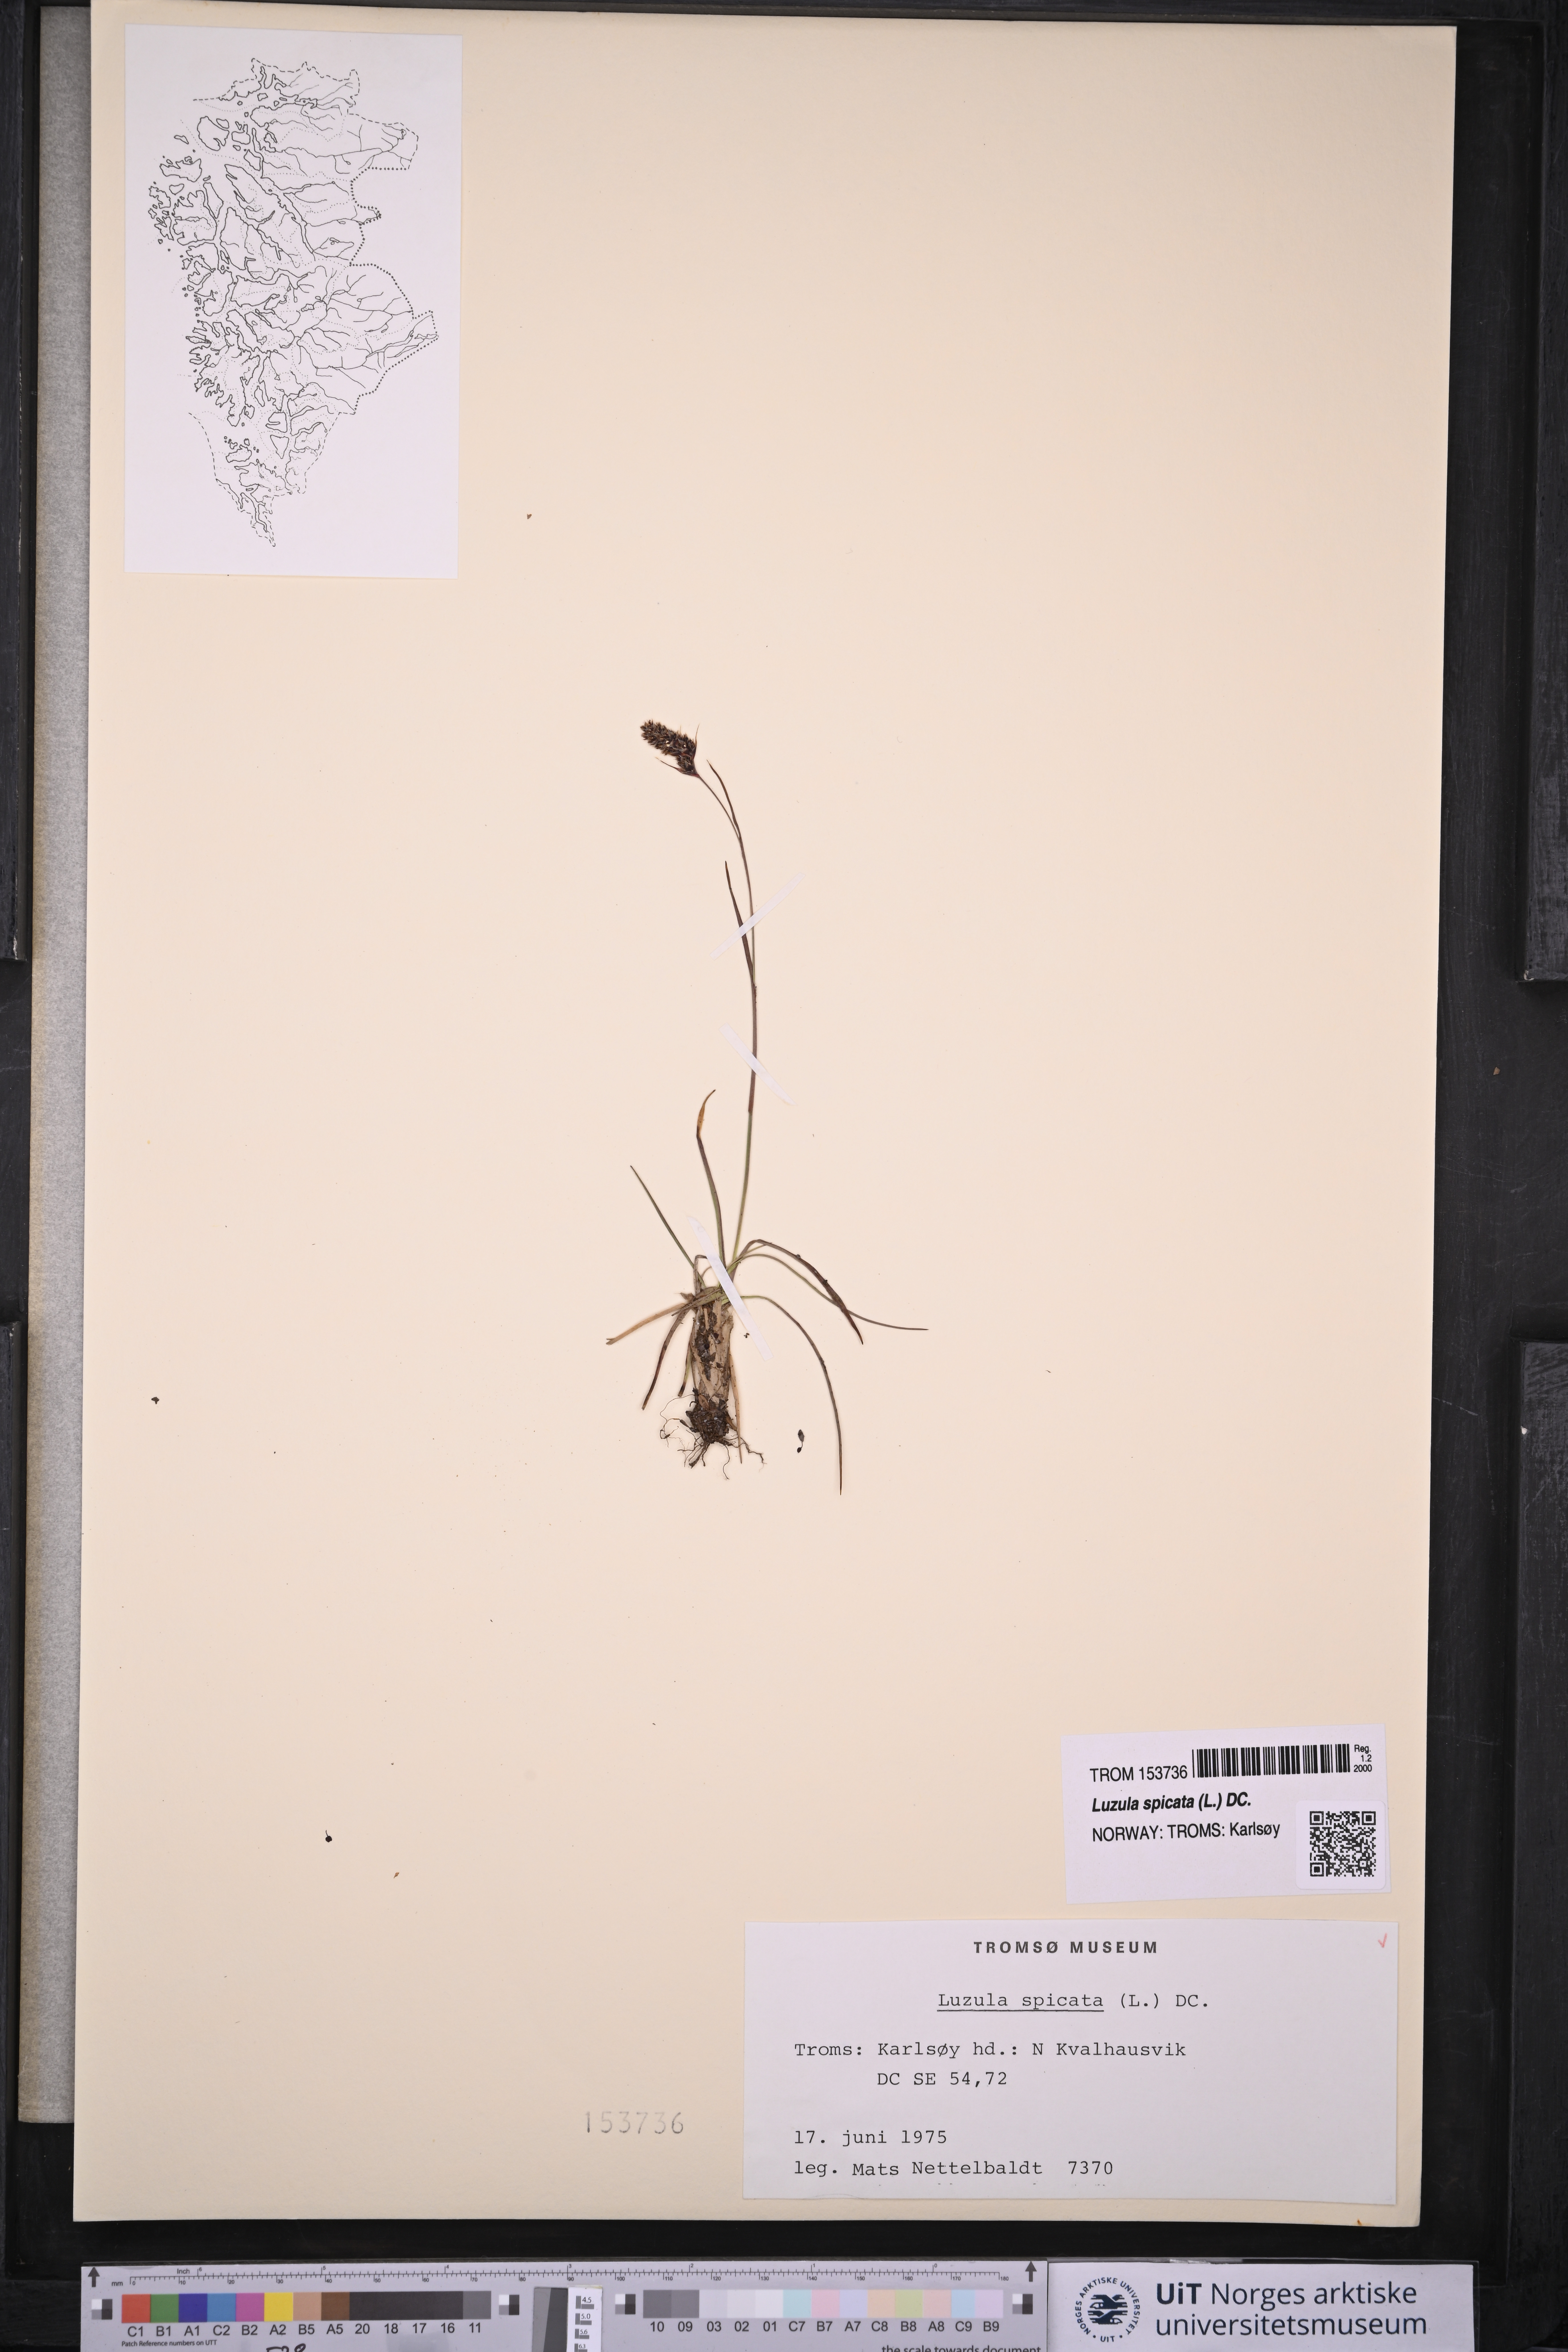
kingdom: Plantae
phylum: Tracheophyta
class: Liliopsida
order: Poales
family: Juncaceae
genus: Luzula
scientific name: Luzula spicata
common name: Spiked wood-rush
